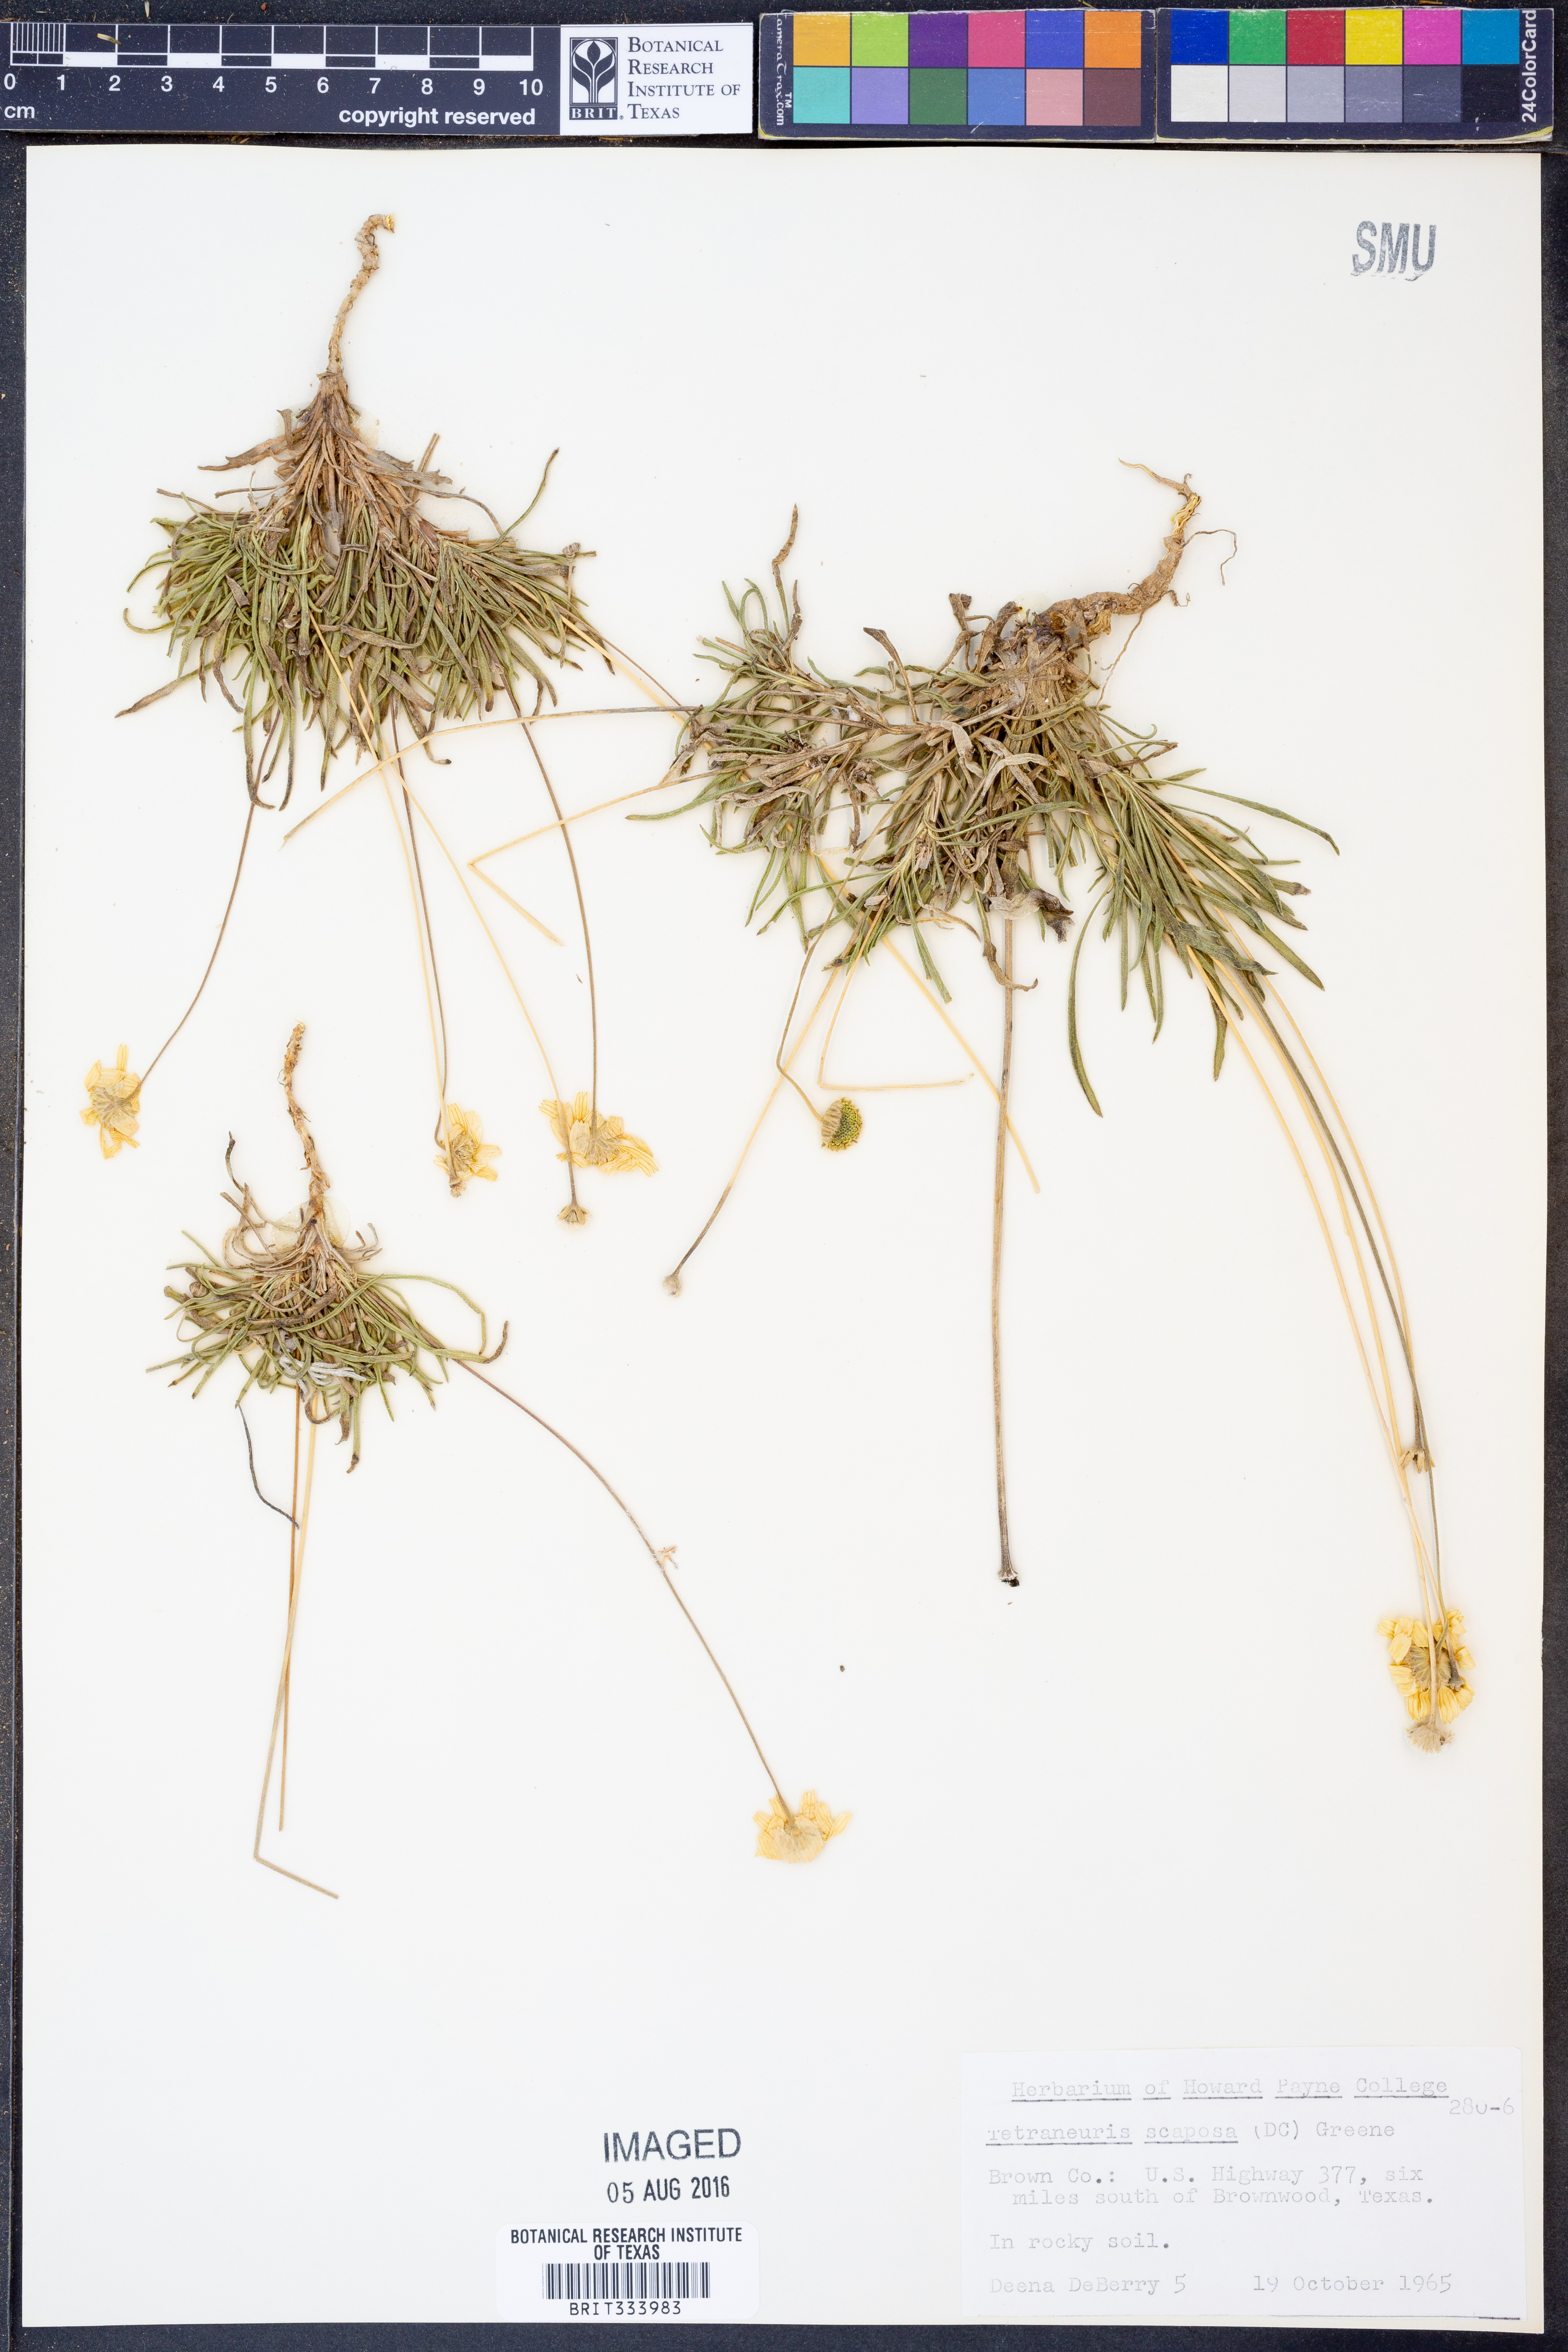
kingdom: Plantae
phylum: Tracheophyta
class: Magnoliopsida
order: Asterales
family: Asteraceae
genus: Tetraneuris
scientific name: Tetraneuris scaposa
